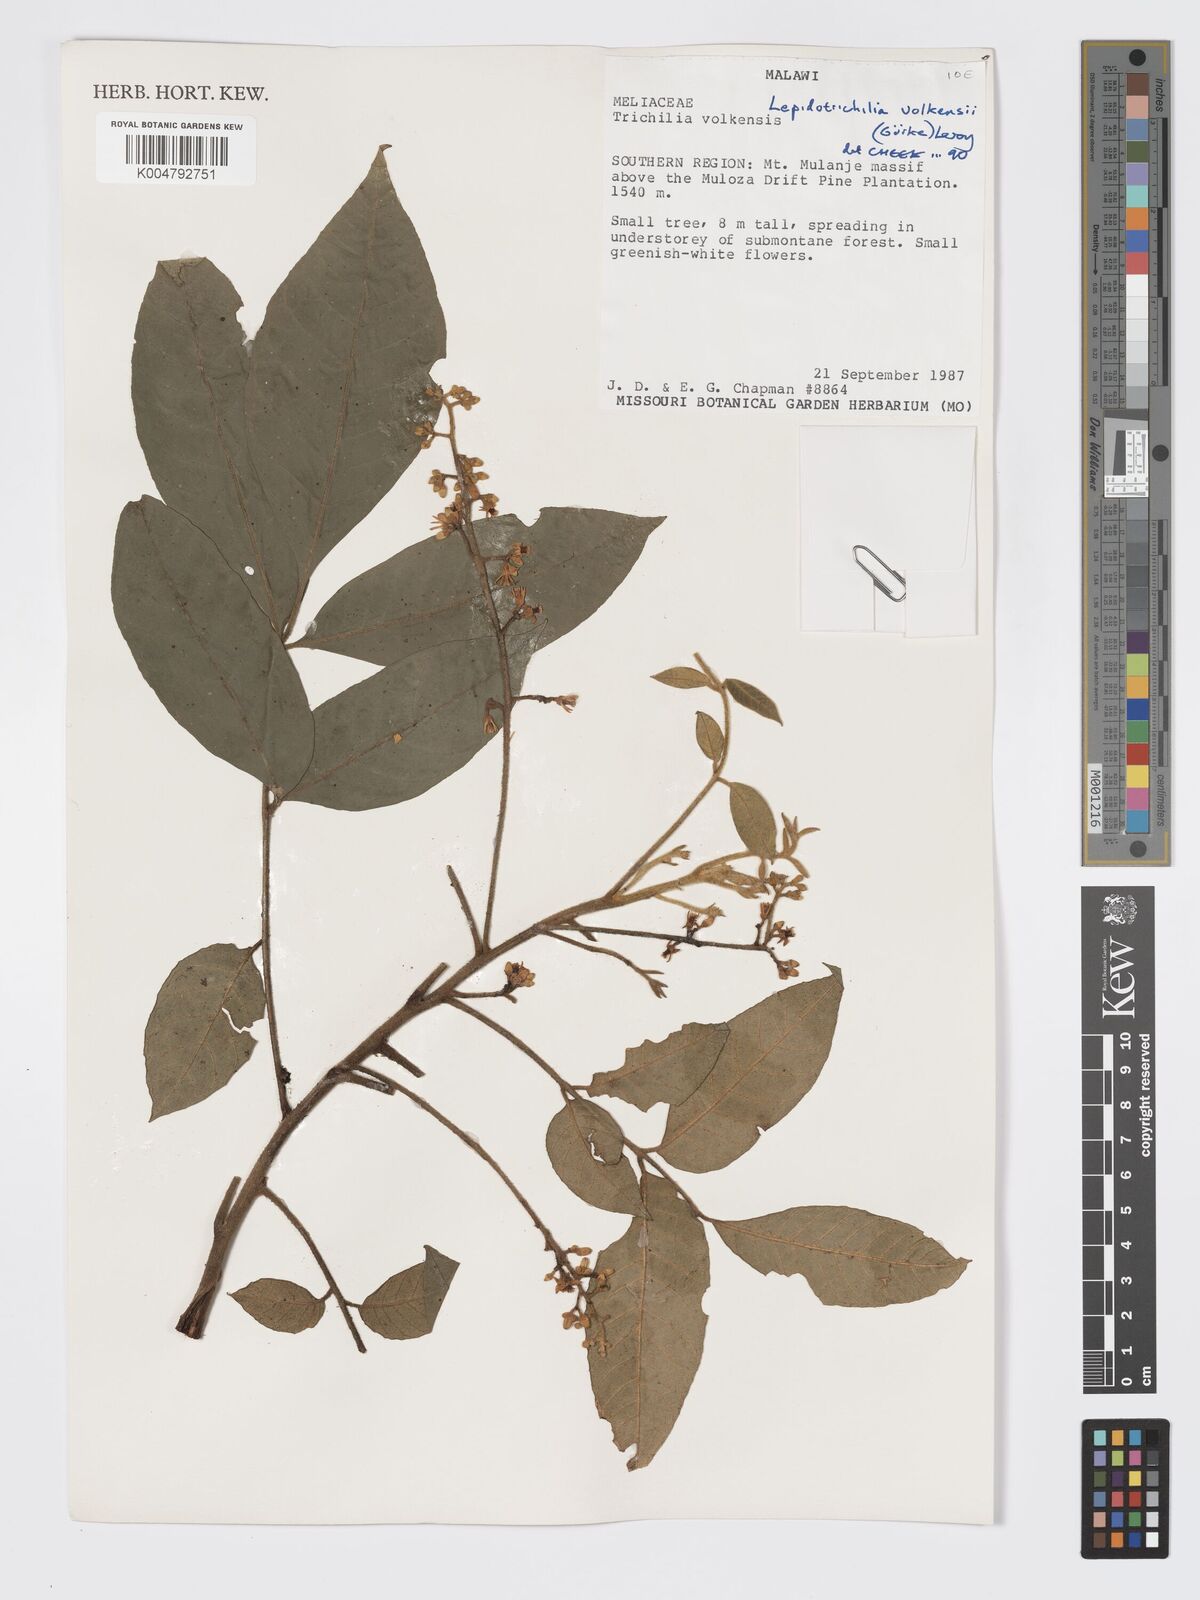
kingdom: Plantae
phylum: Tracheophyta
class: Magnoliopsida
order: Sapindales
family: Meliaceae
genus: Lepidotrichilia
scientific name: Lepidotrichilia volkensii
